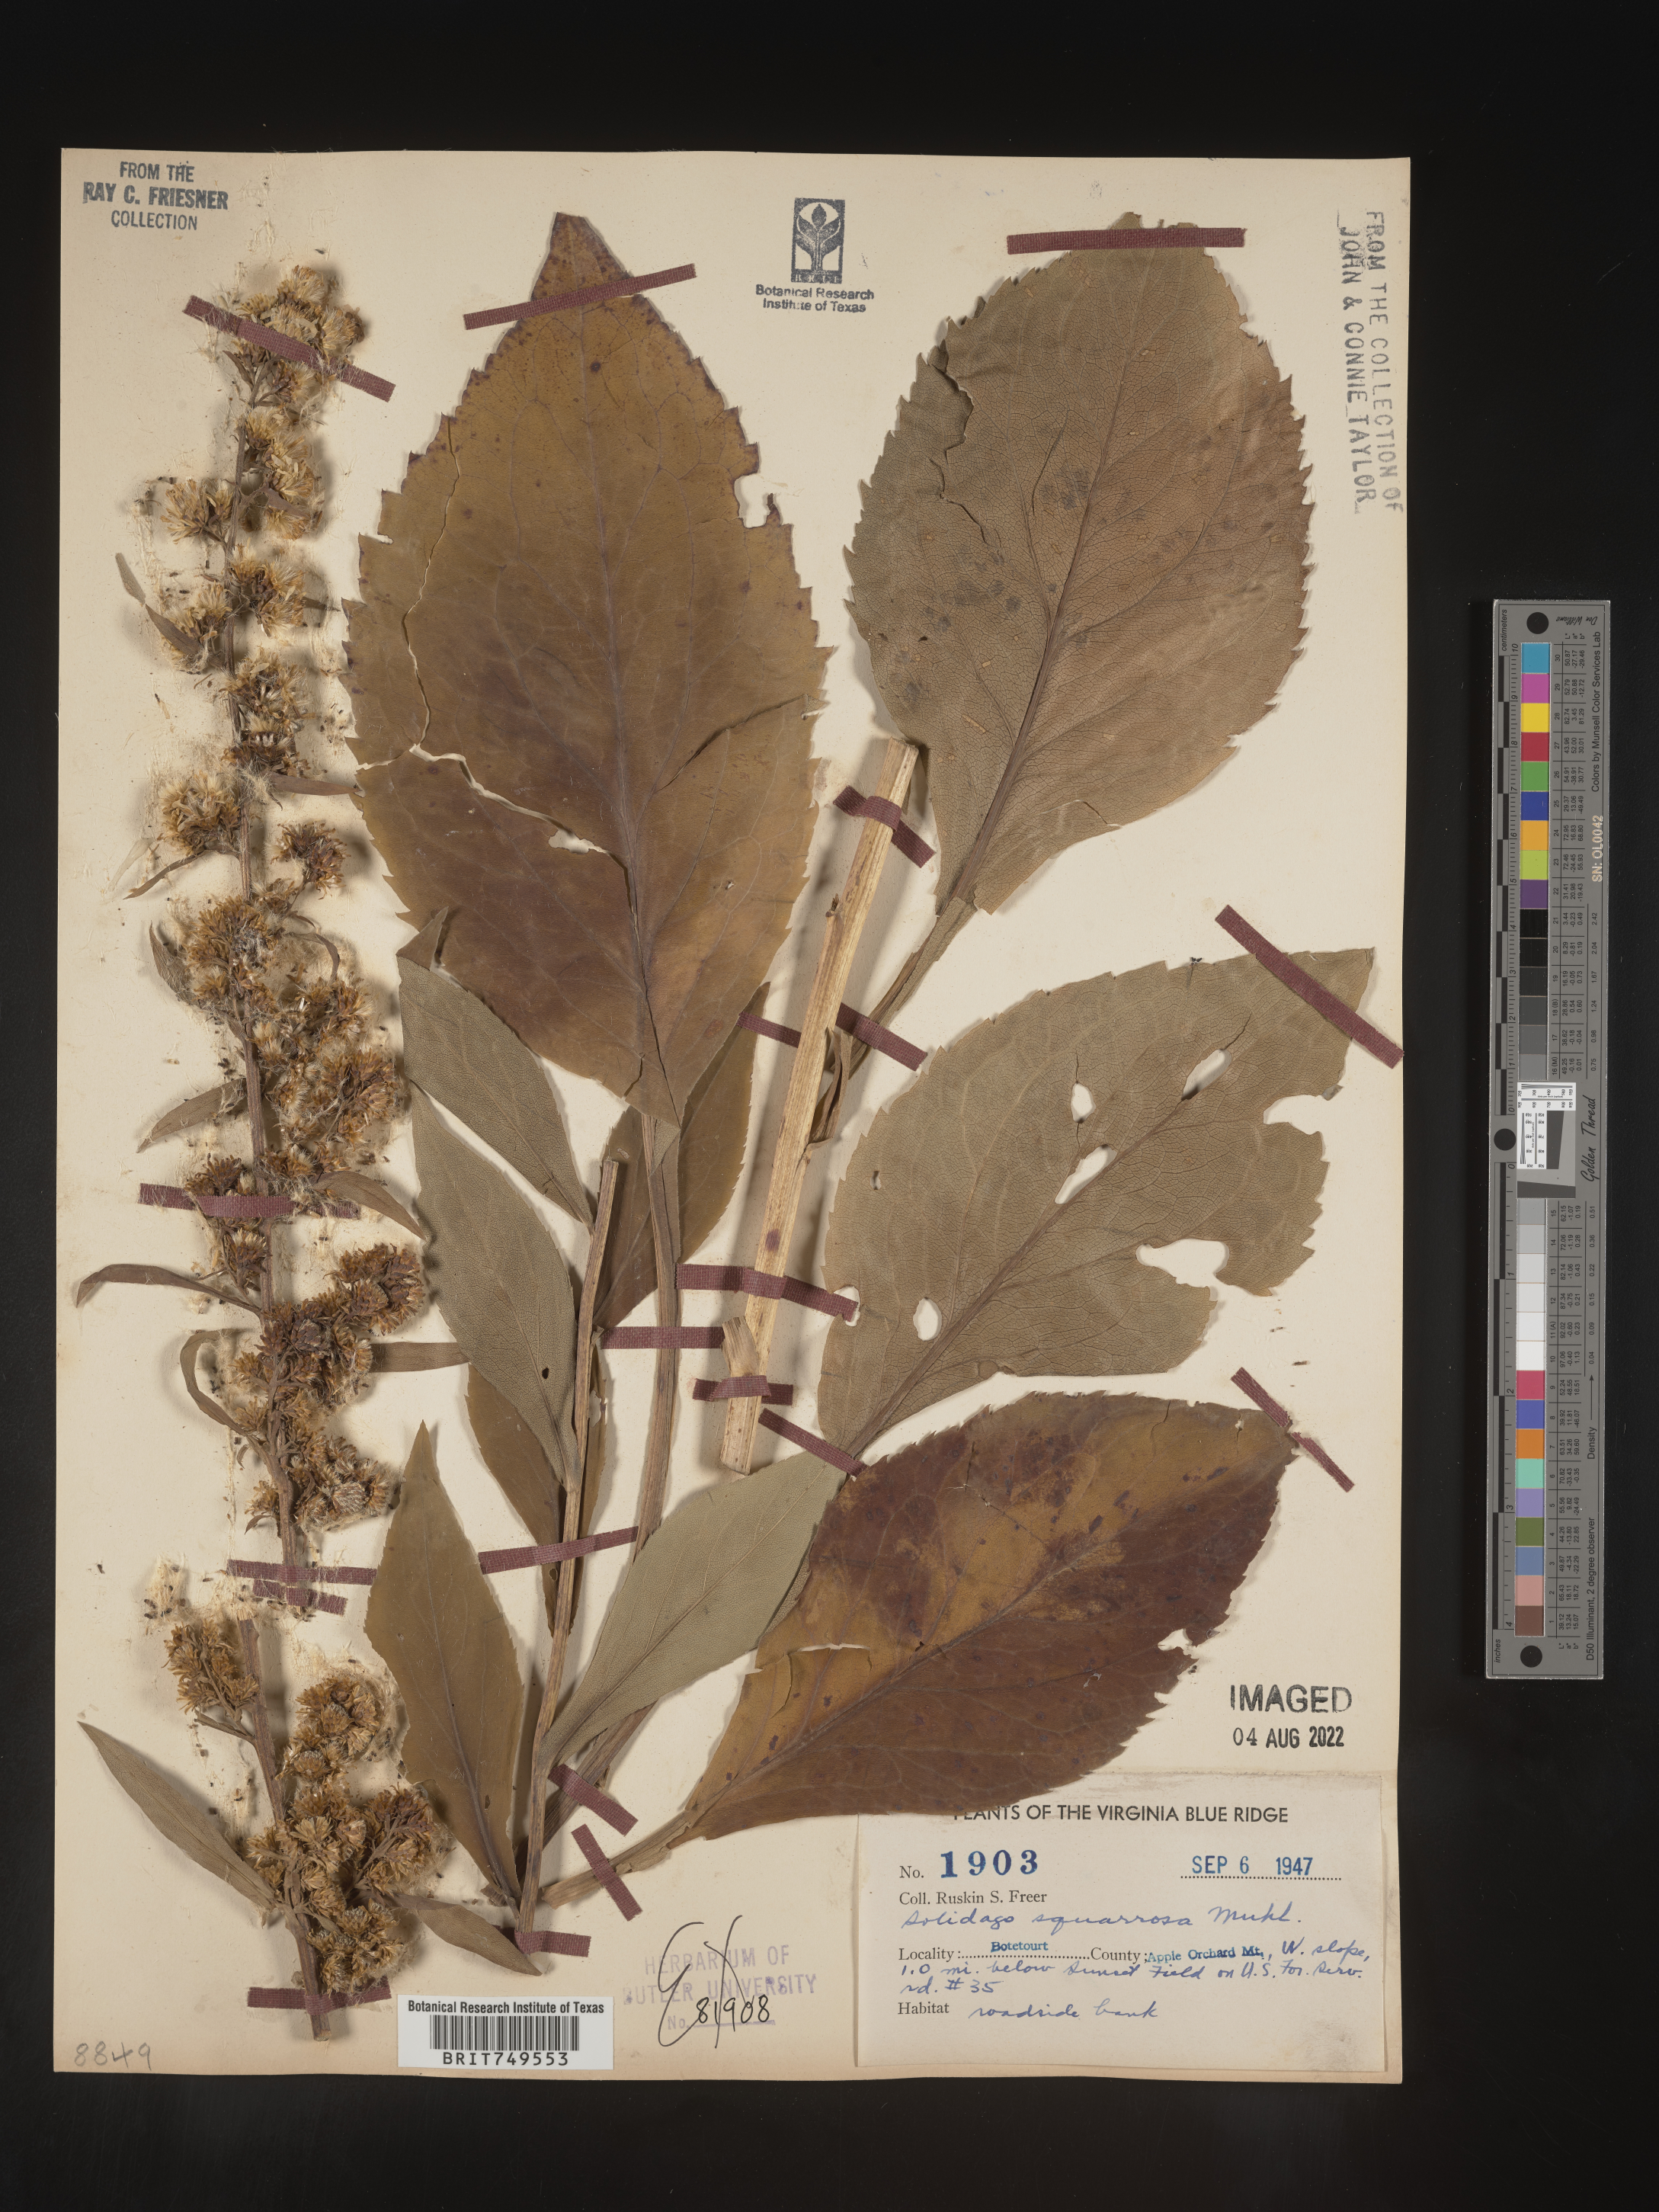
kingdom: Plantae
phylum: Tracheophyta
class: Magnoliopsida
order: Asterales
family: Asteraceae
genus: Solidago
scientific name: Solidago squarrosa
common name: Stout goldenrod
